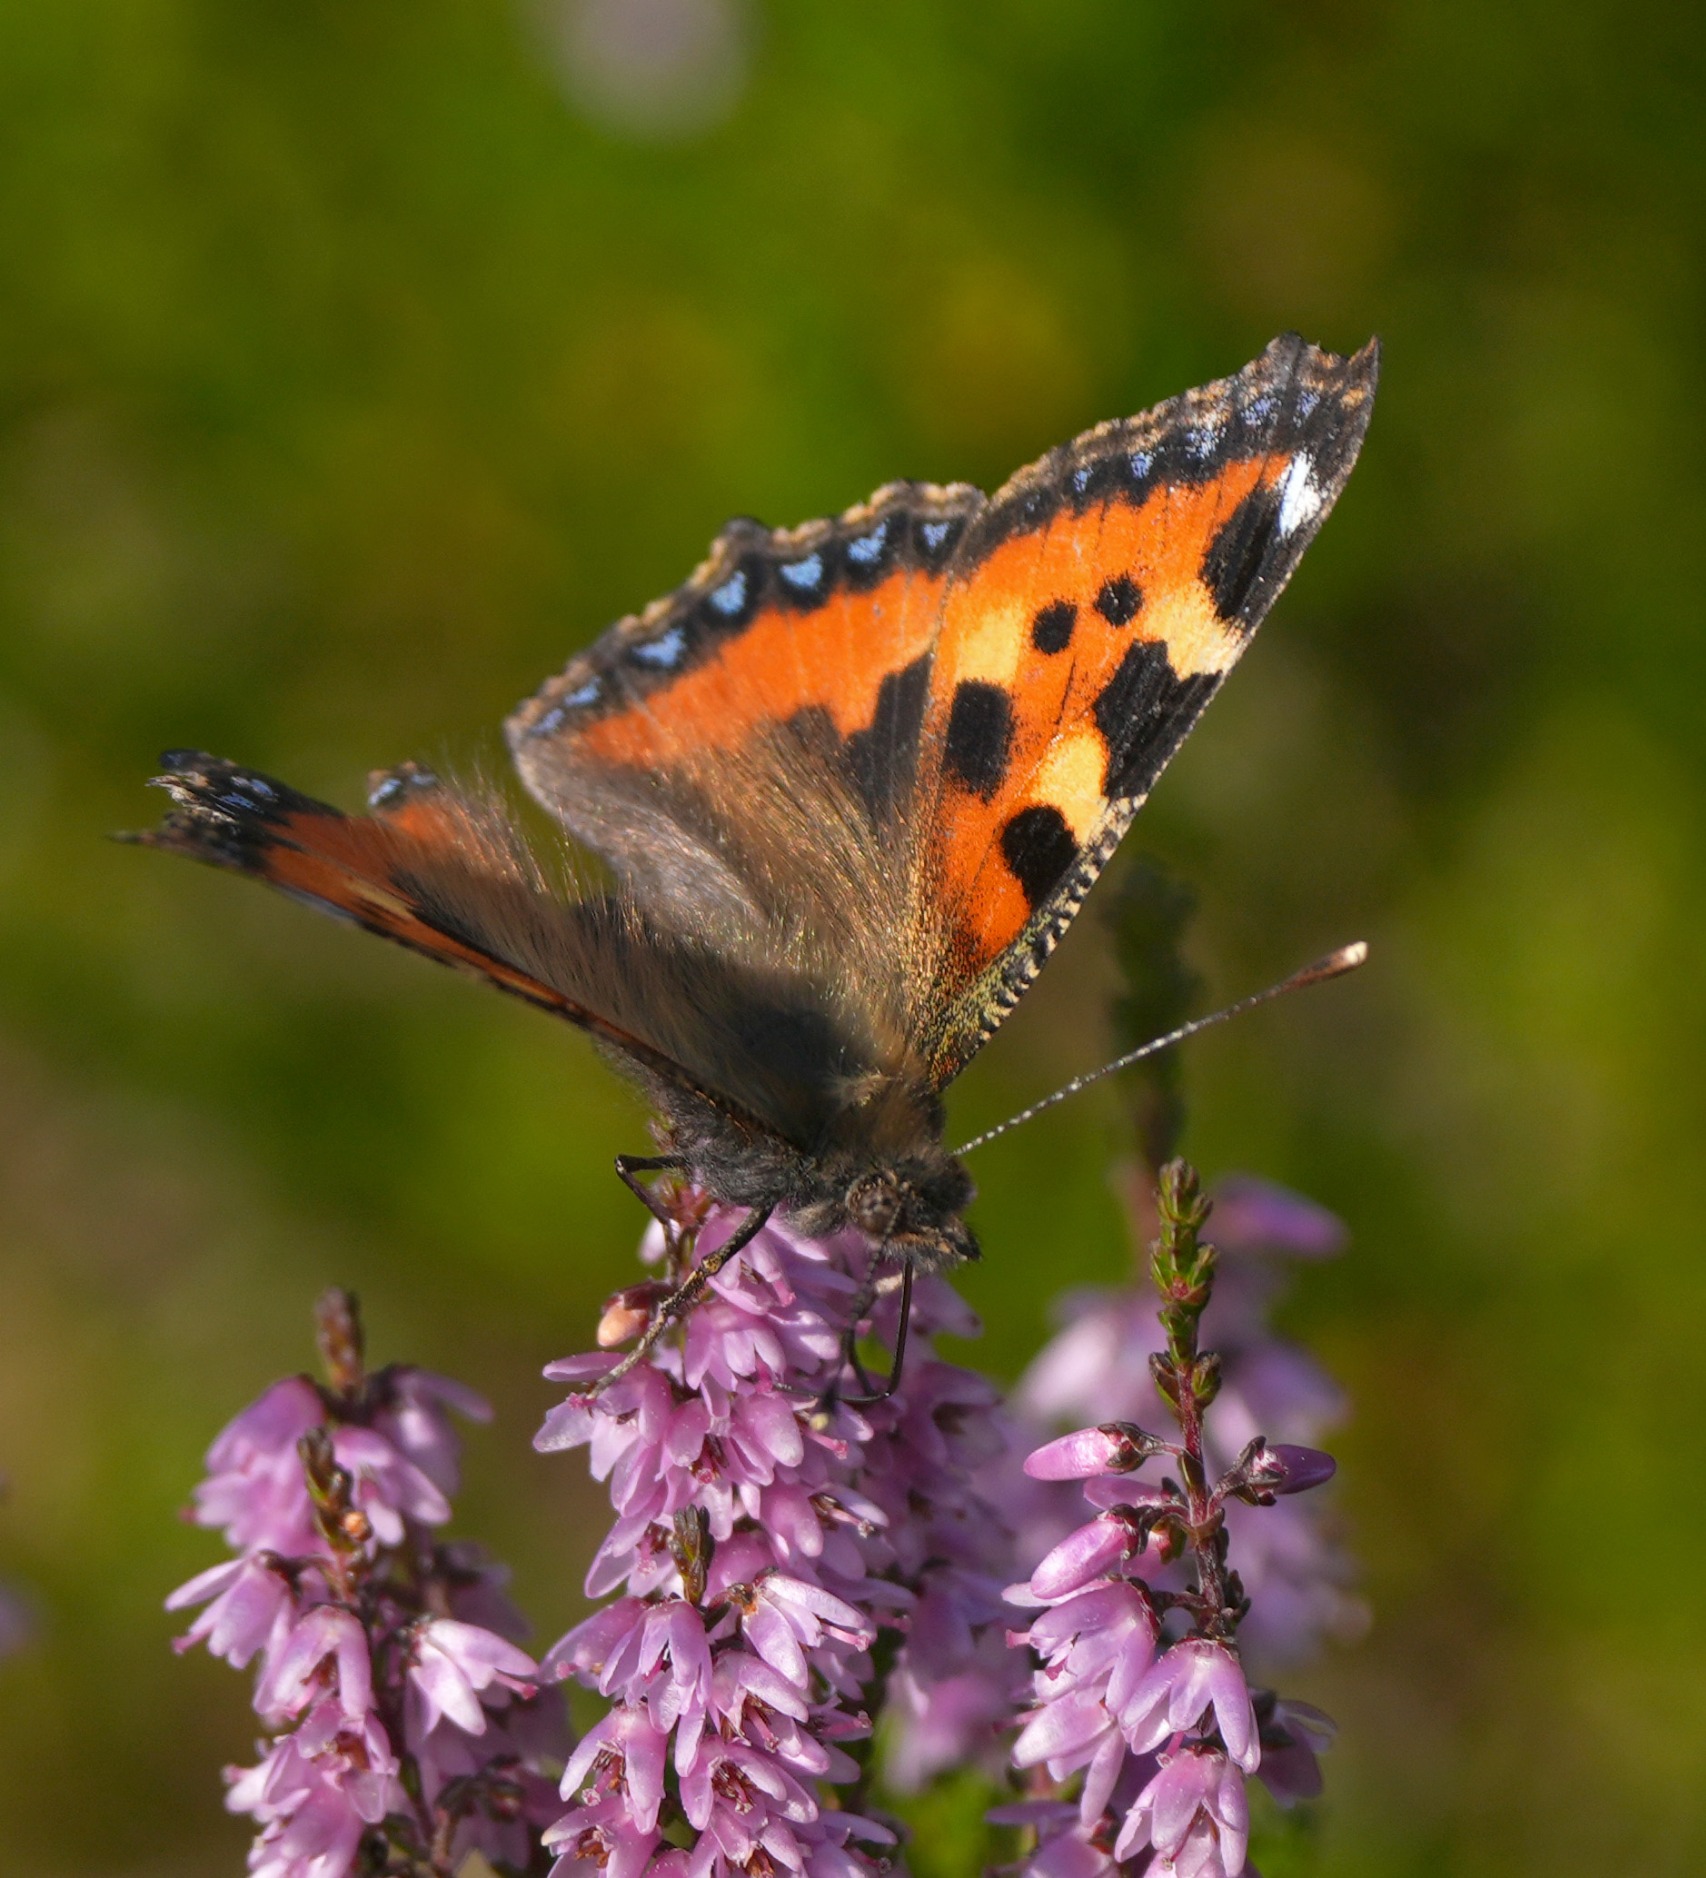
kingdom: Animalia
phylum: Arthropoda
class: Insecta
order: Lepidoptera
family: Nymphalidae
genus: Aglais
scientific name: Aglais urticae
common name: Nældens takvinge
